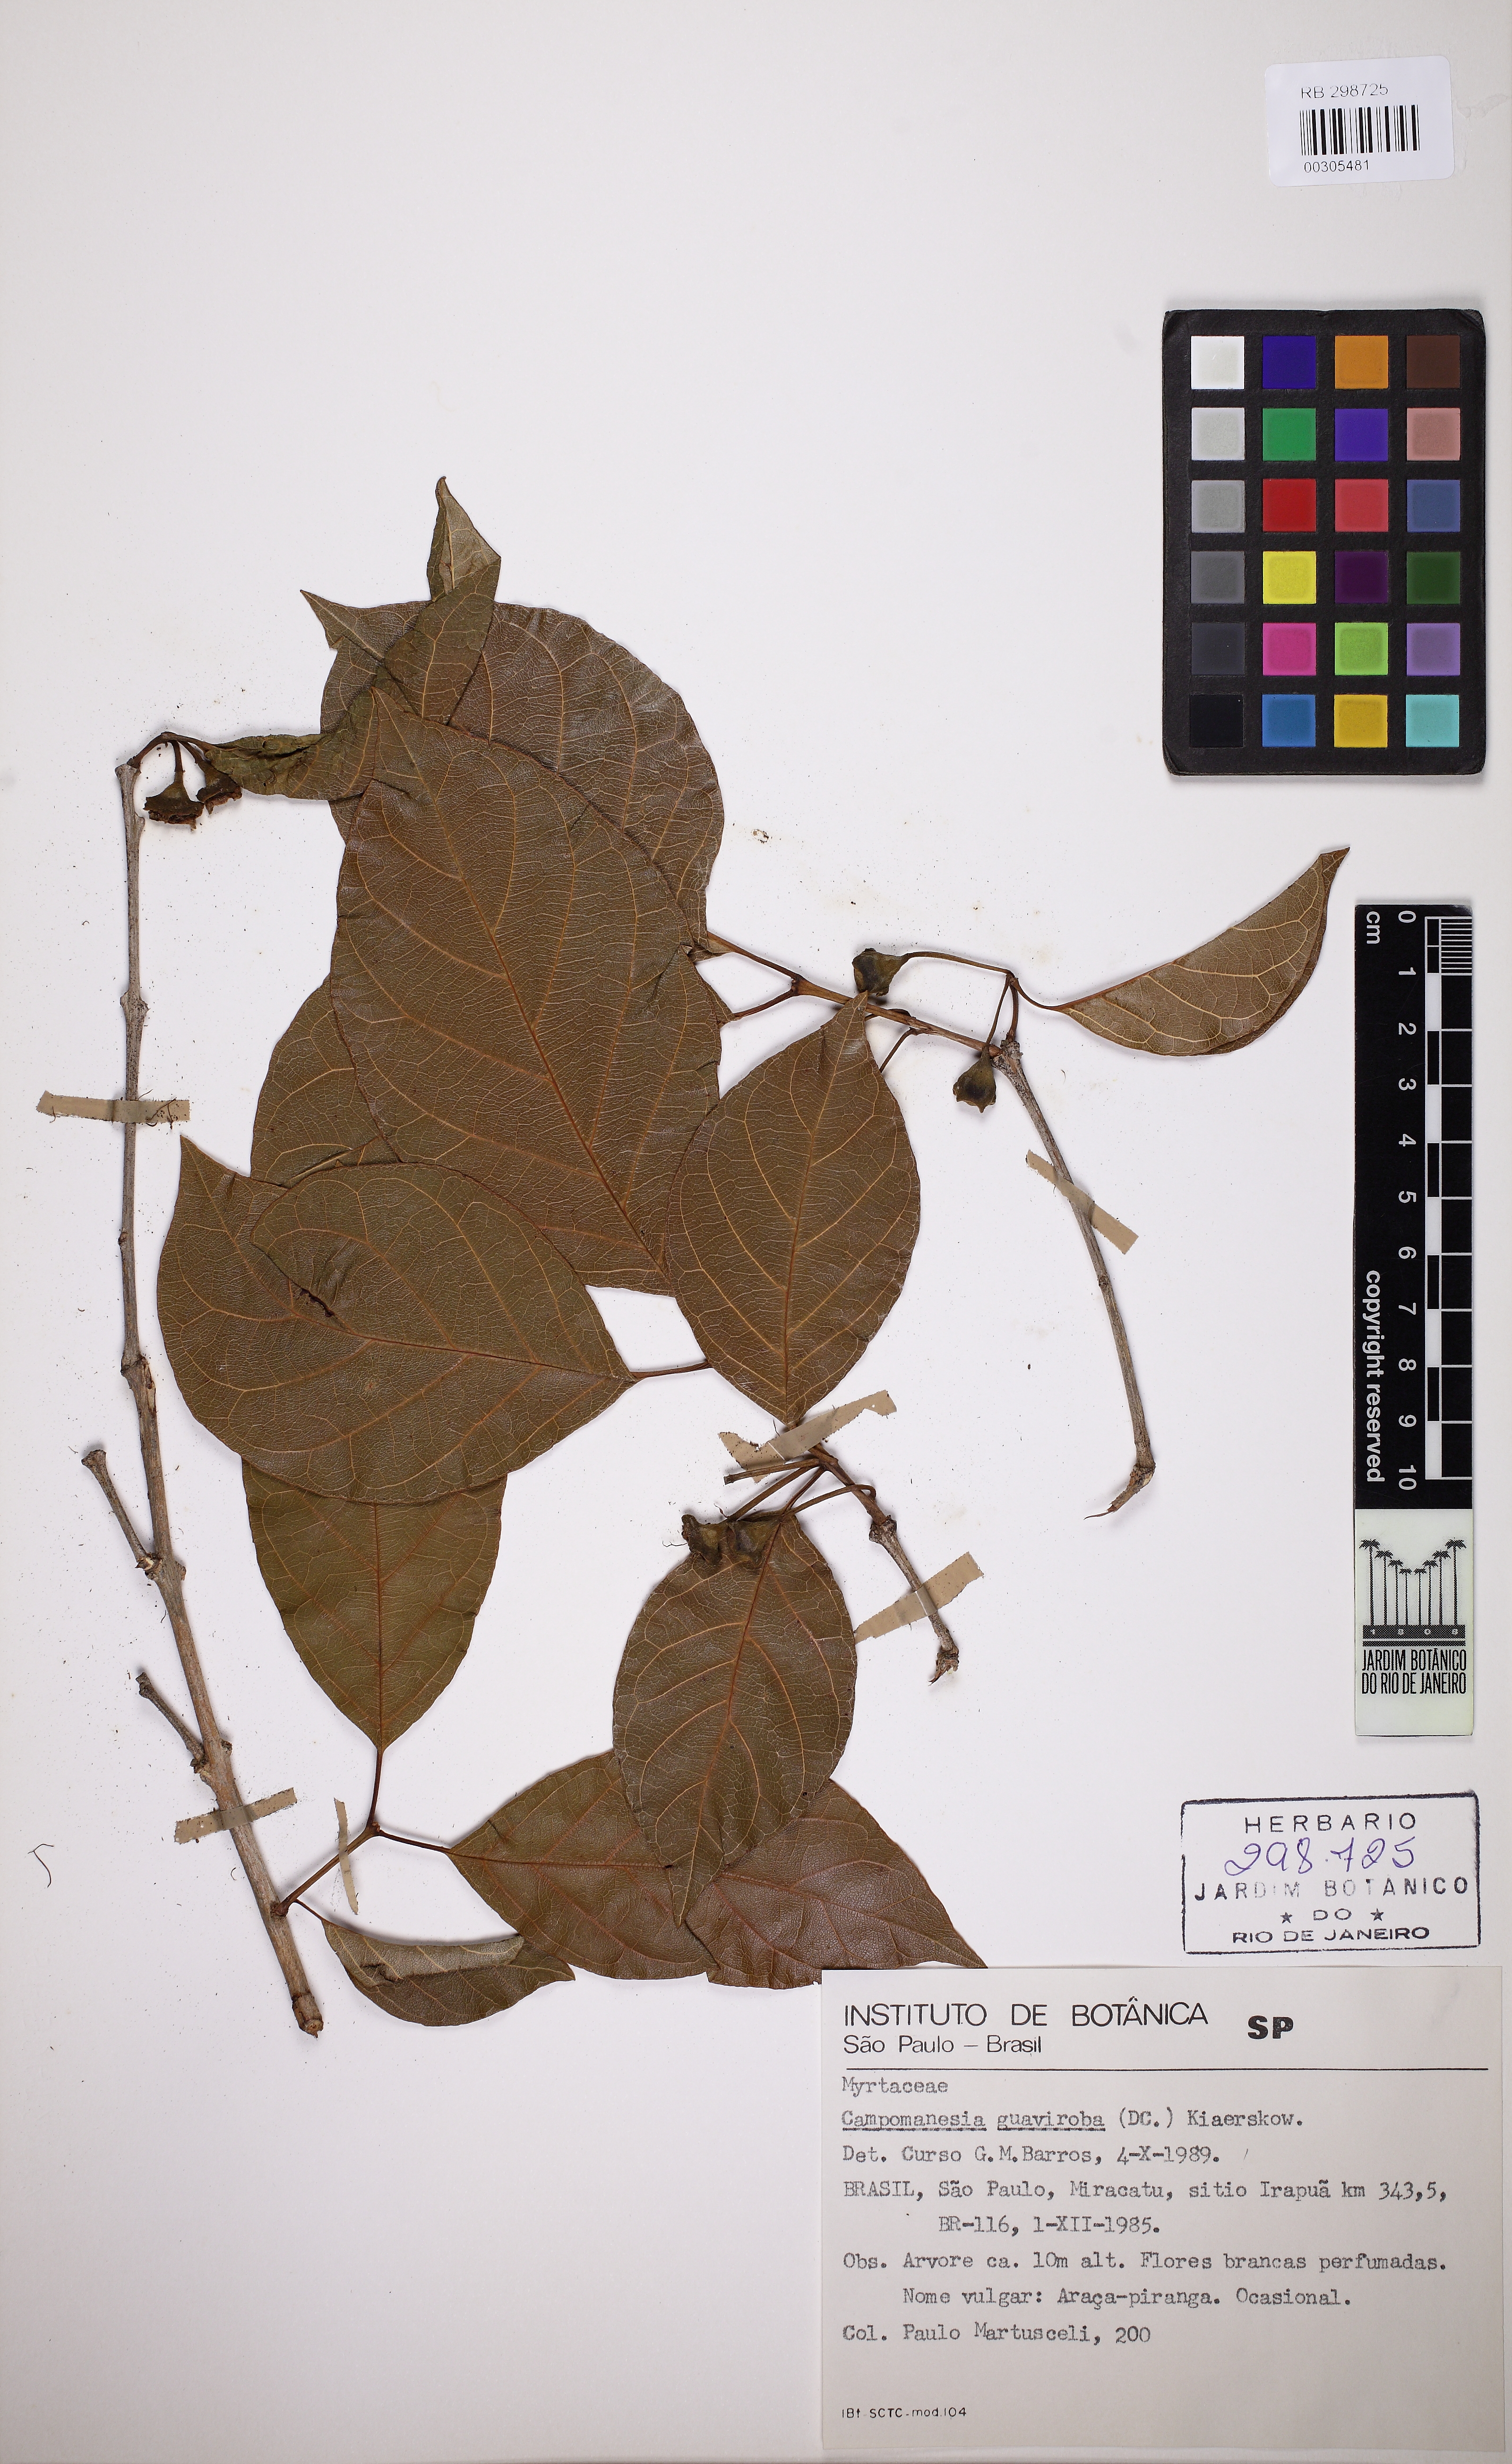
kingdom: Plantae
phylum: Tracheophyta
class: Magnoliopsida
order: Myrtales
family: Myrtaceae
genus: Campomanesia
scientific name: Campomanesia guaviroba
